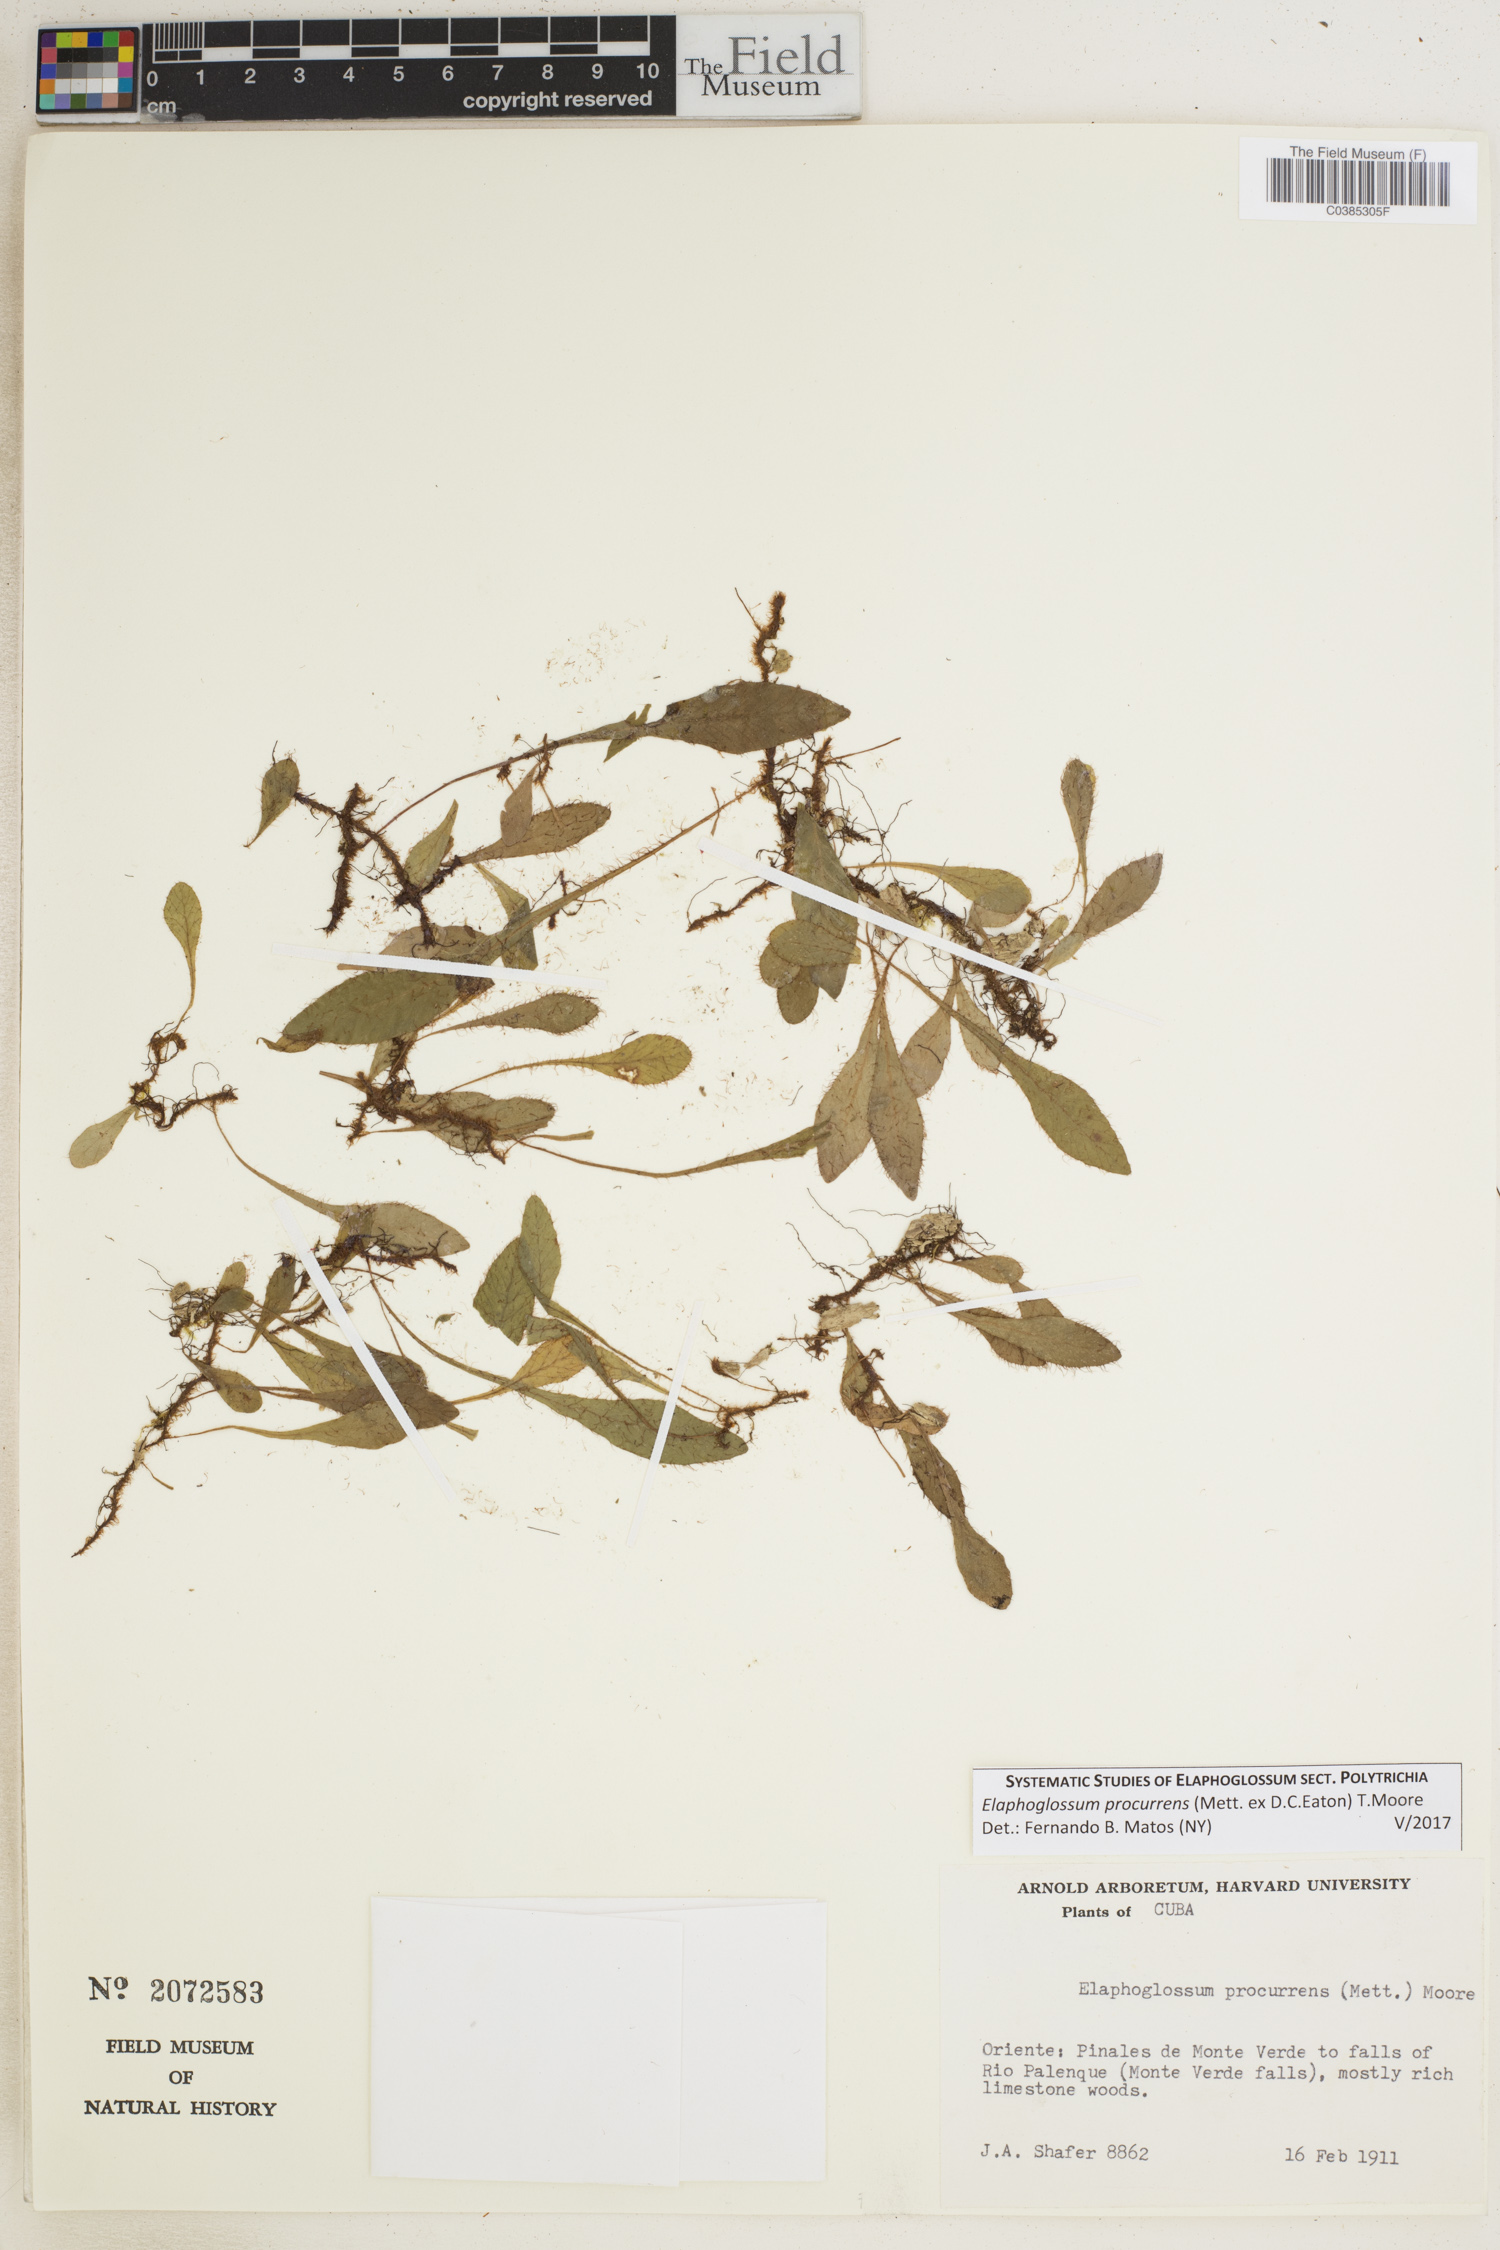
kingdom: Plantae
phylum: Tracheophyta
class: Polypodiopsida
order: Polypodiales
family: Dryopteridaceae
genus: Elaphoglossum
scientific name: Elaphoglossum procurrens
